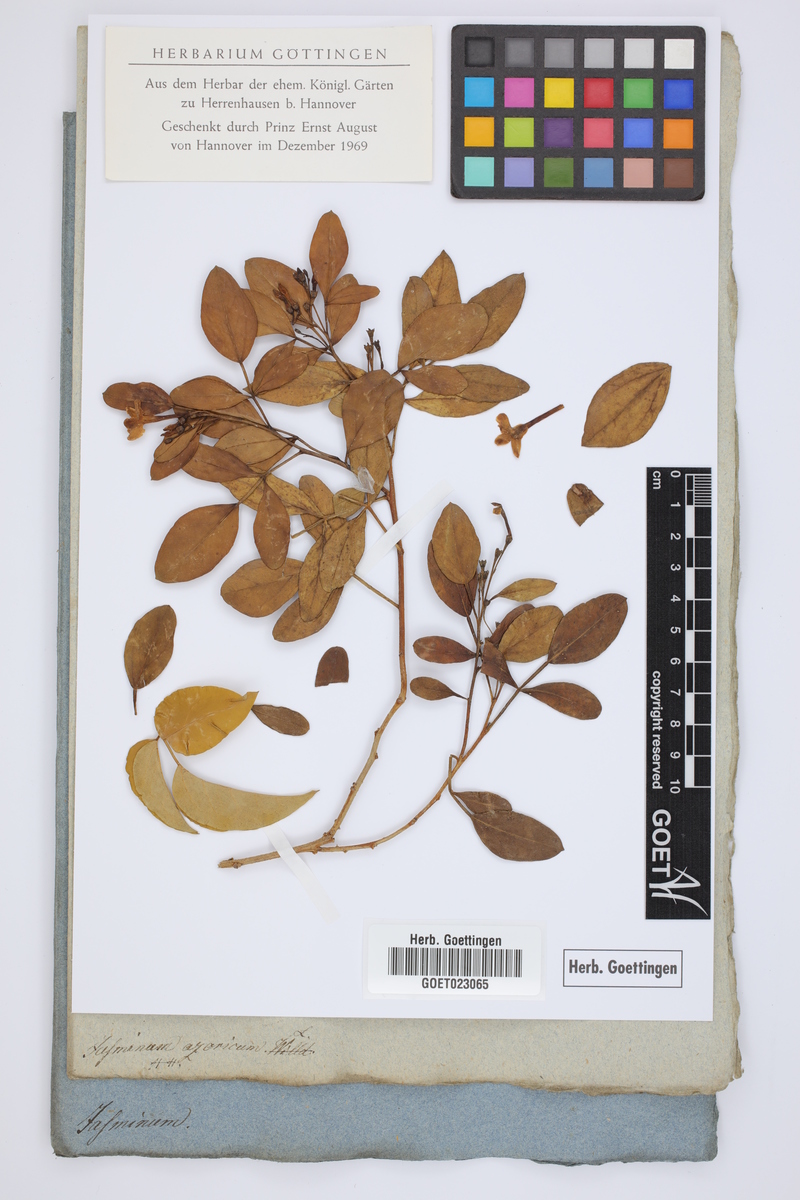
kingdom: Plantae
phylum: Tracheophyta
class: Magnoliopsida
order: Lamiales
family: Oleaceae
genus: Jasminum
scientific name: Jasminum azoricum
